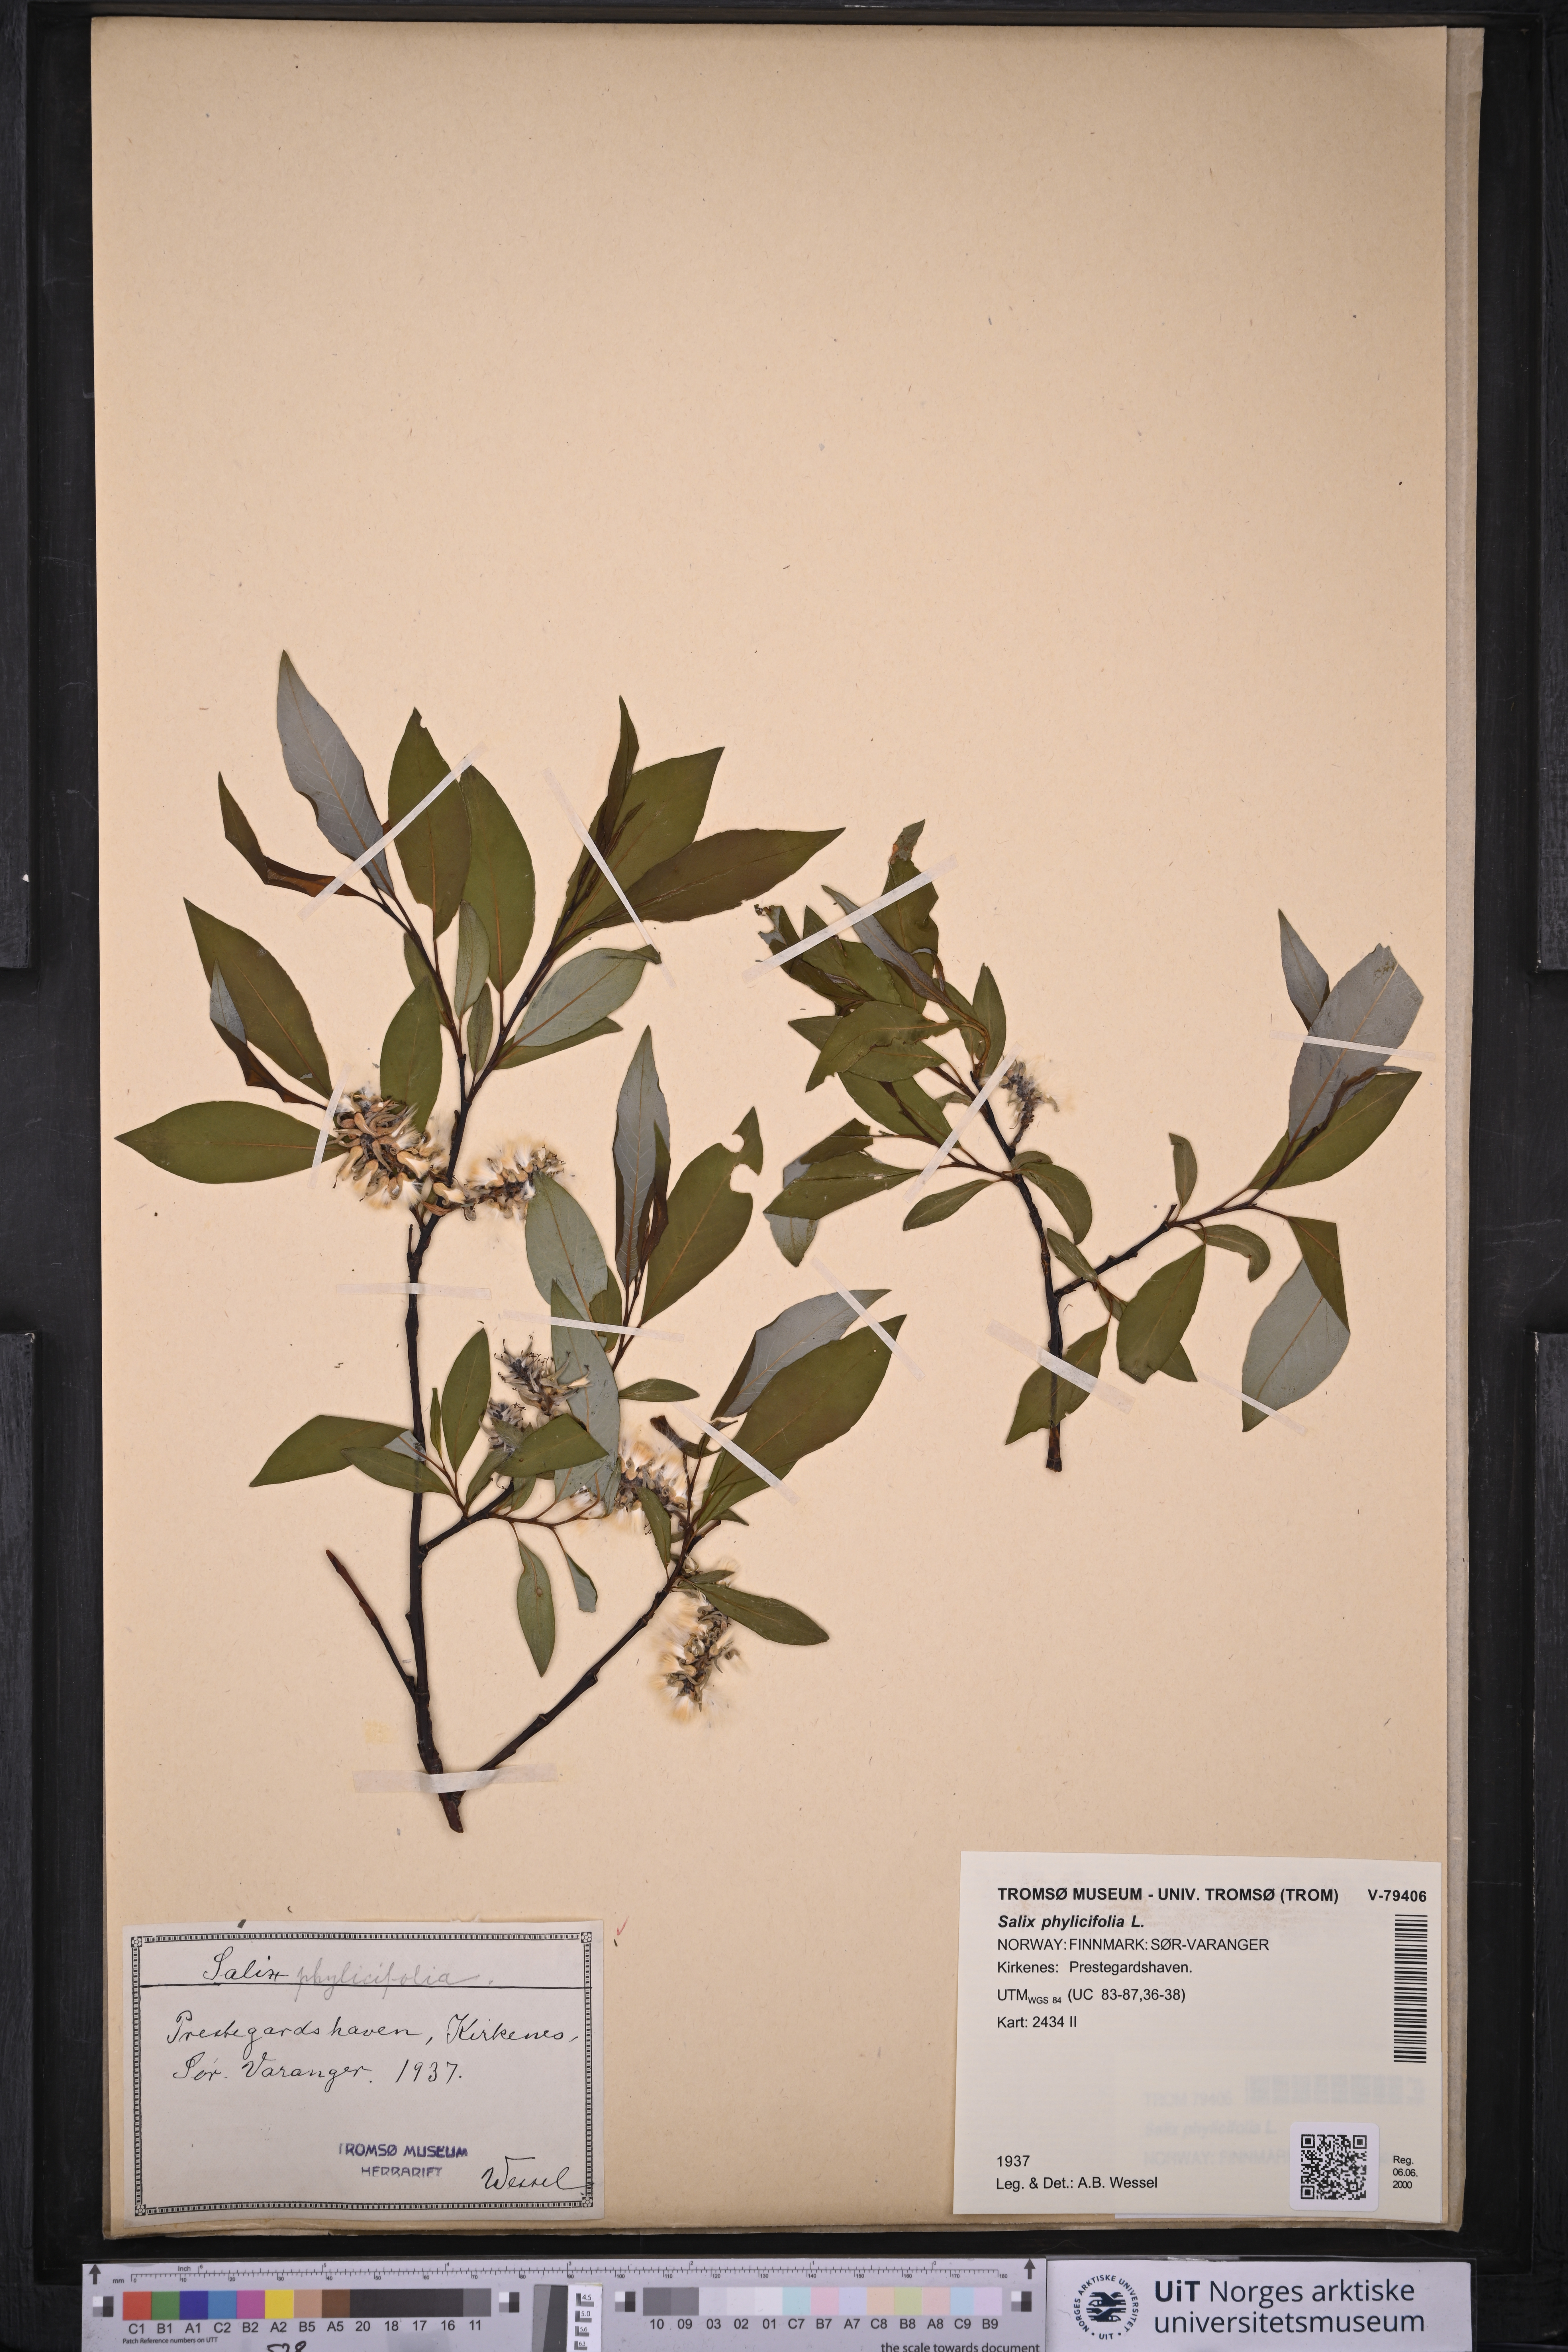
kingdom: Plantae
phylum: Tracheophyta
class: Magnoliopsida
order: Malpighiales
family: Salicaceae
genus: Salix
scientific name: Salix phylicifolia
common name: Tea-leaved willow
